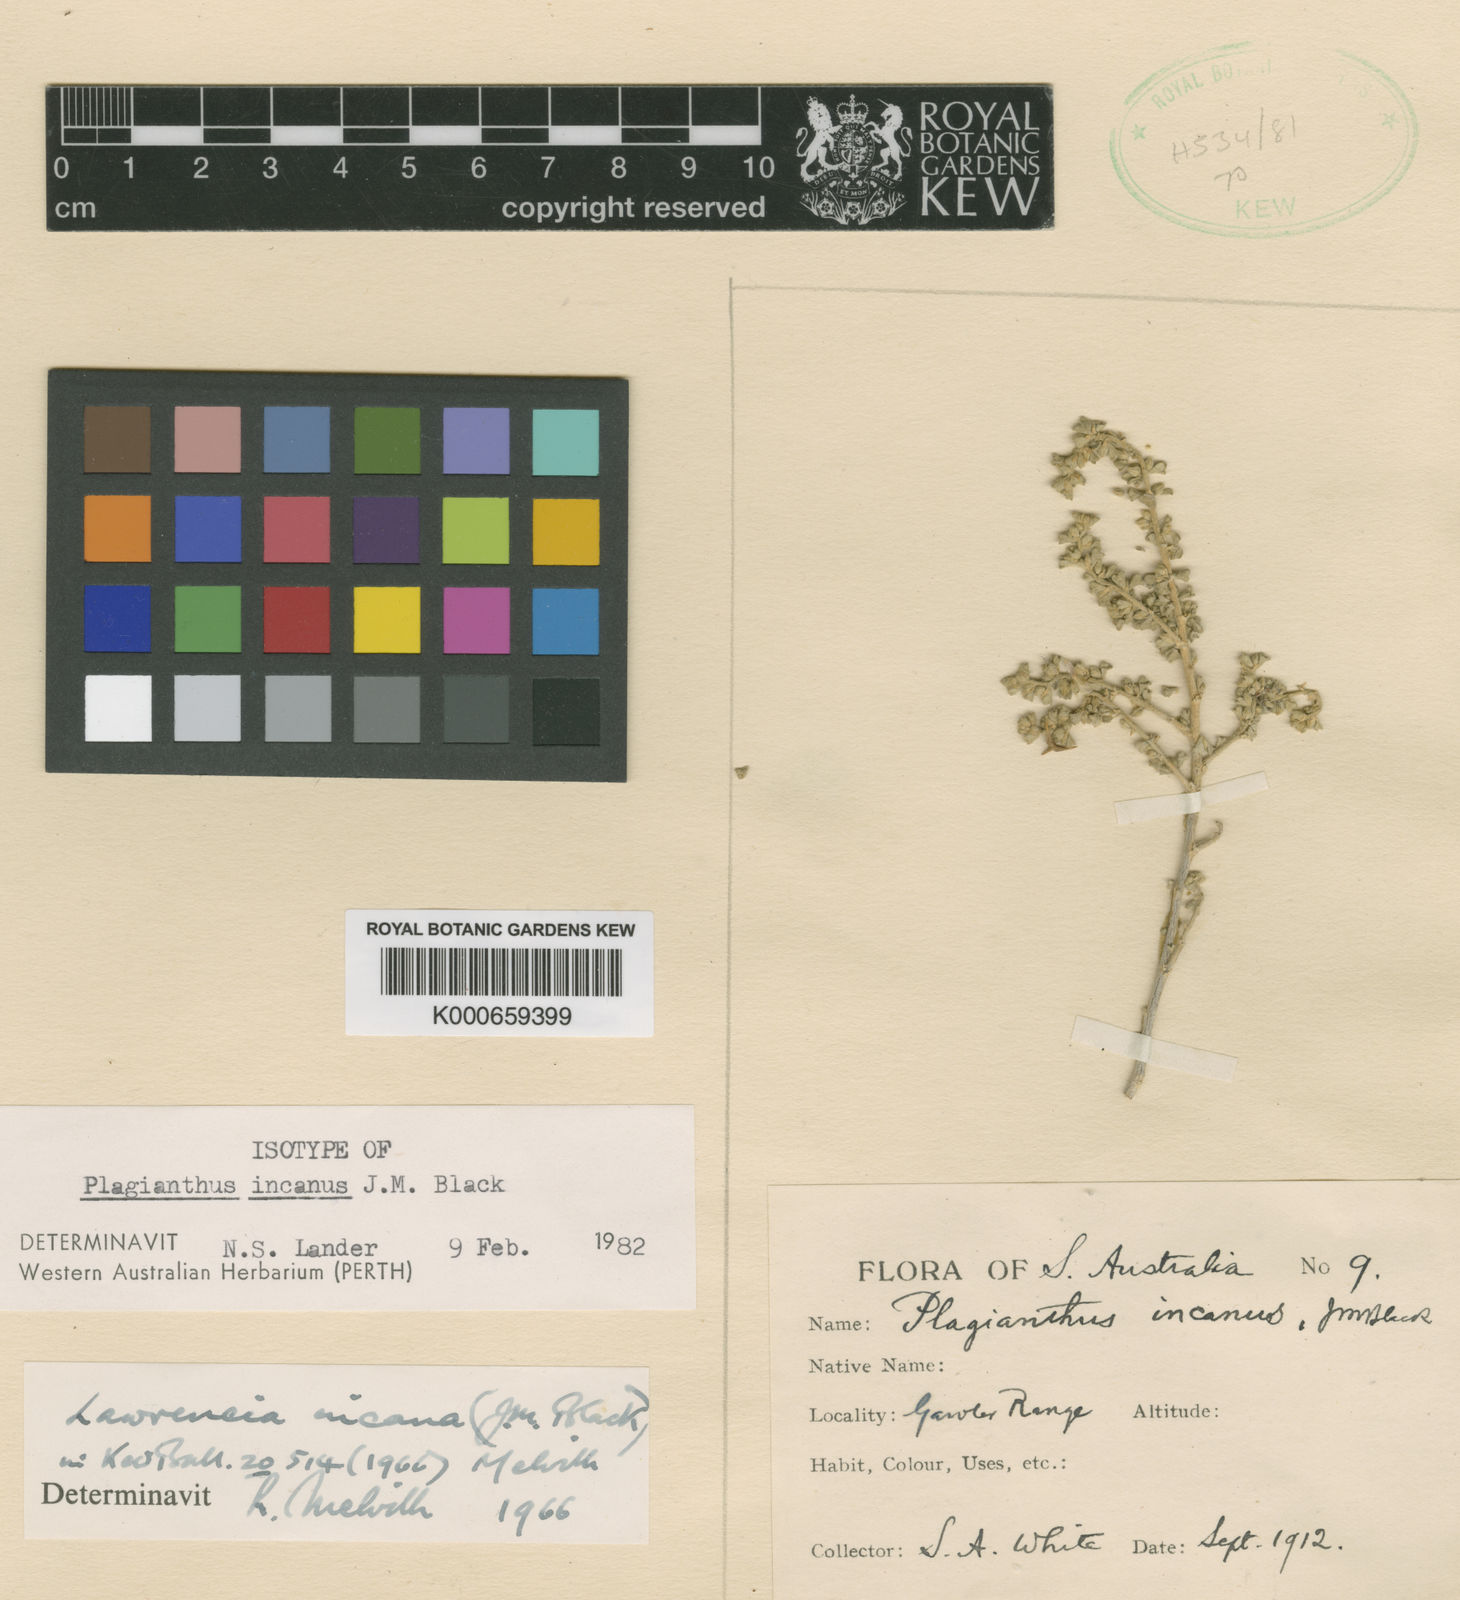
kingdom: Plantae
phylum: Tracheophyta
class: Magnoliopsida
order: Malvales
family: Malvaceae
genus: Lawrencia
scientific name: Lawrencia squamata
